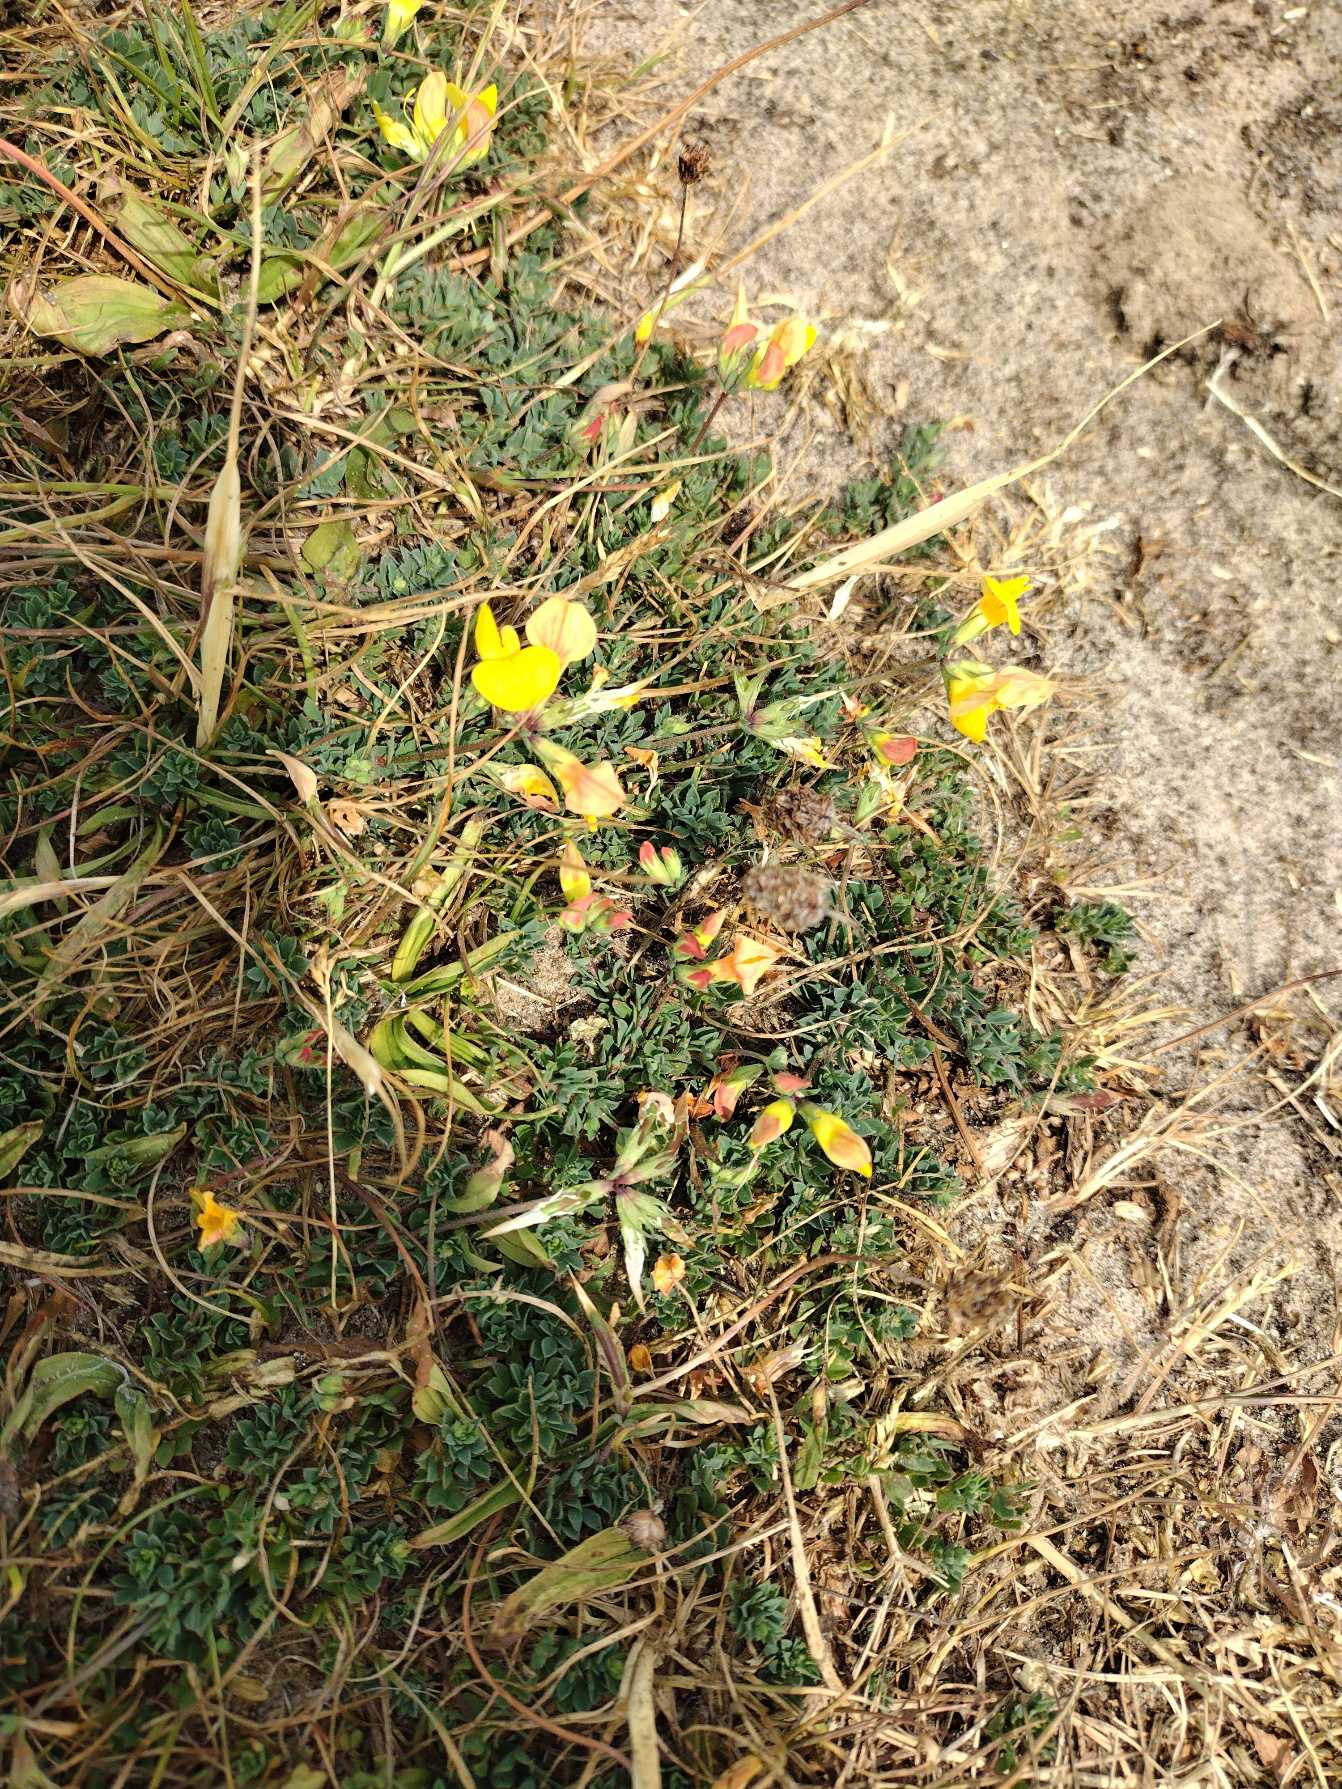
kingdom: Plantae
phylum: Tracheophyta
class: Magnoliopsida
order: Fabales
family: Fabaceae
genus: Lotus
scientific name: Lotus corniculatus
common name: Almindelig kællingetand
